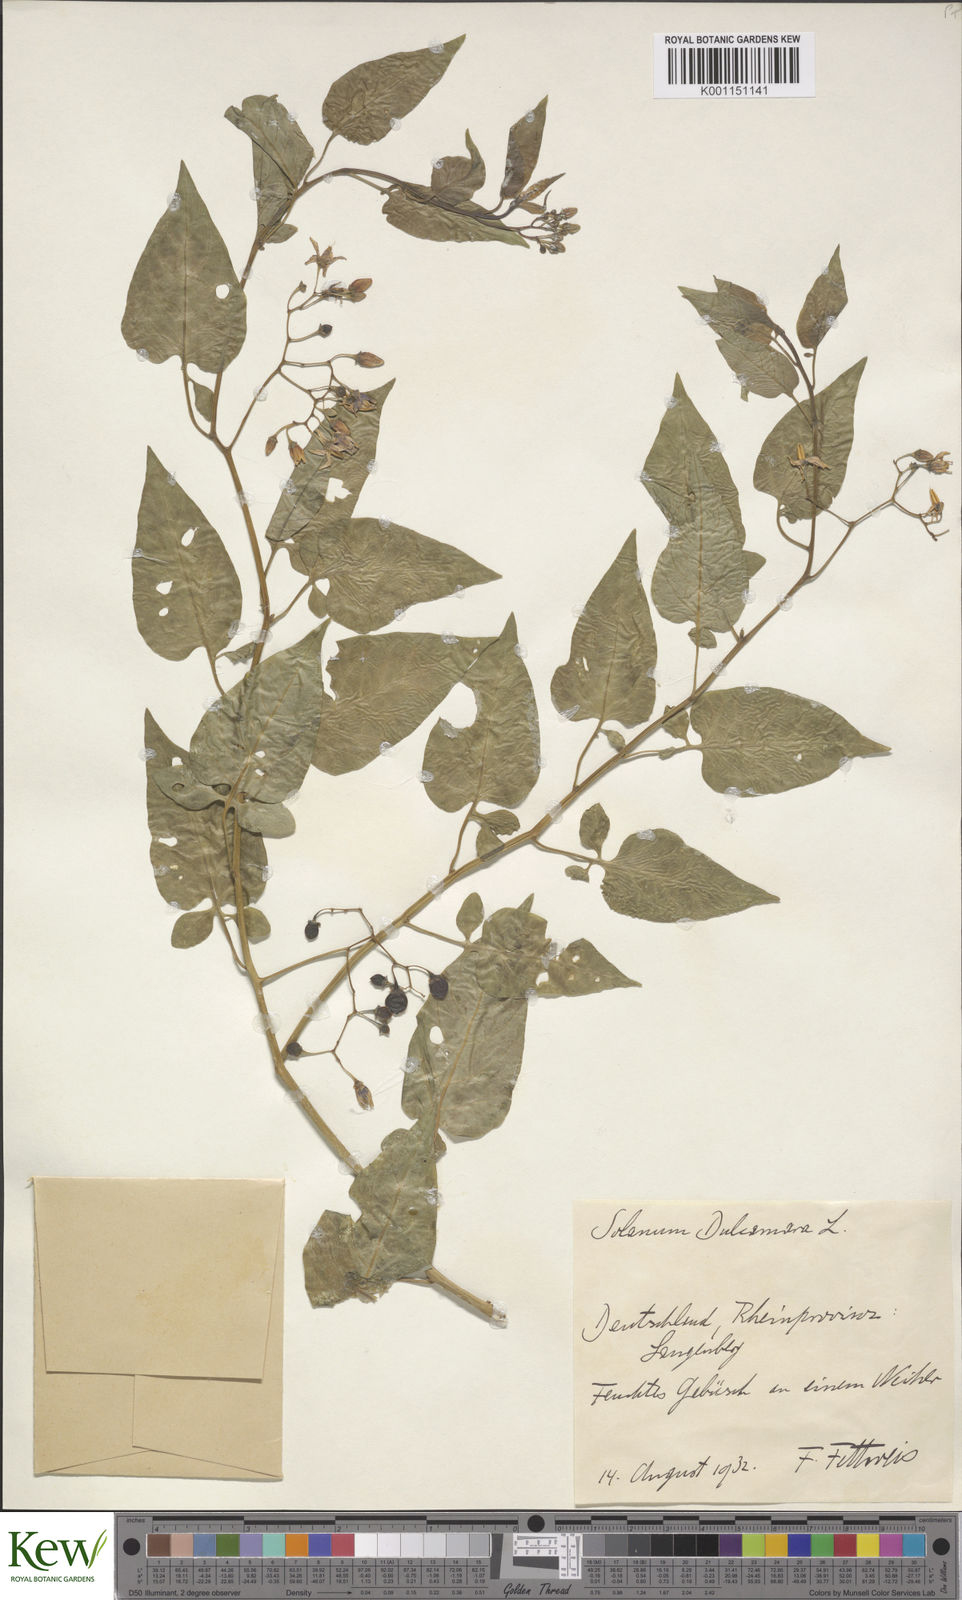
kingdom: Plantae
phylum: Tracheophyta
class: Magnoliopsida
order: Solanales
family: Solanaceae
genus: Solanum
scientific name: Solanum dulcamara
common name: Climbing nightshade
